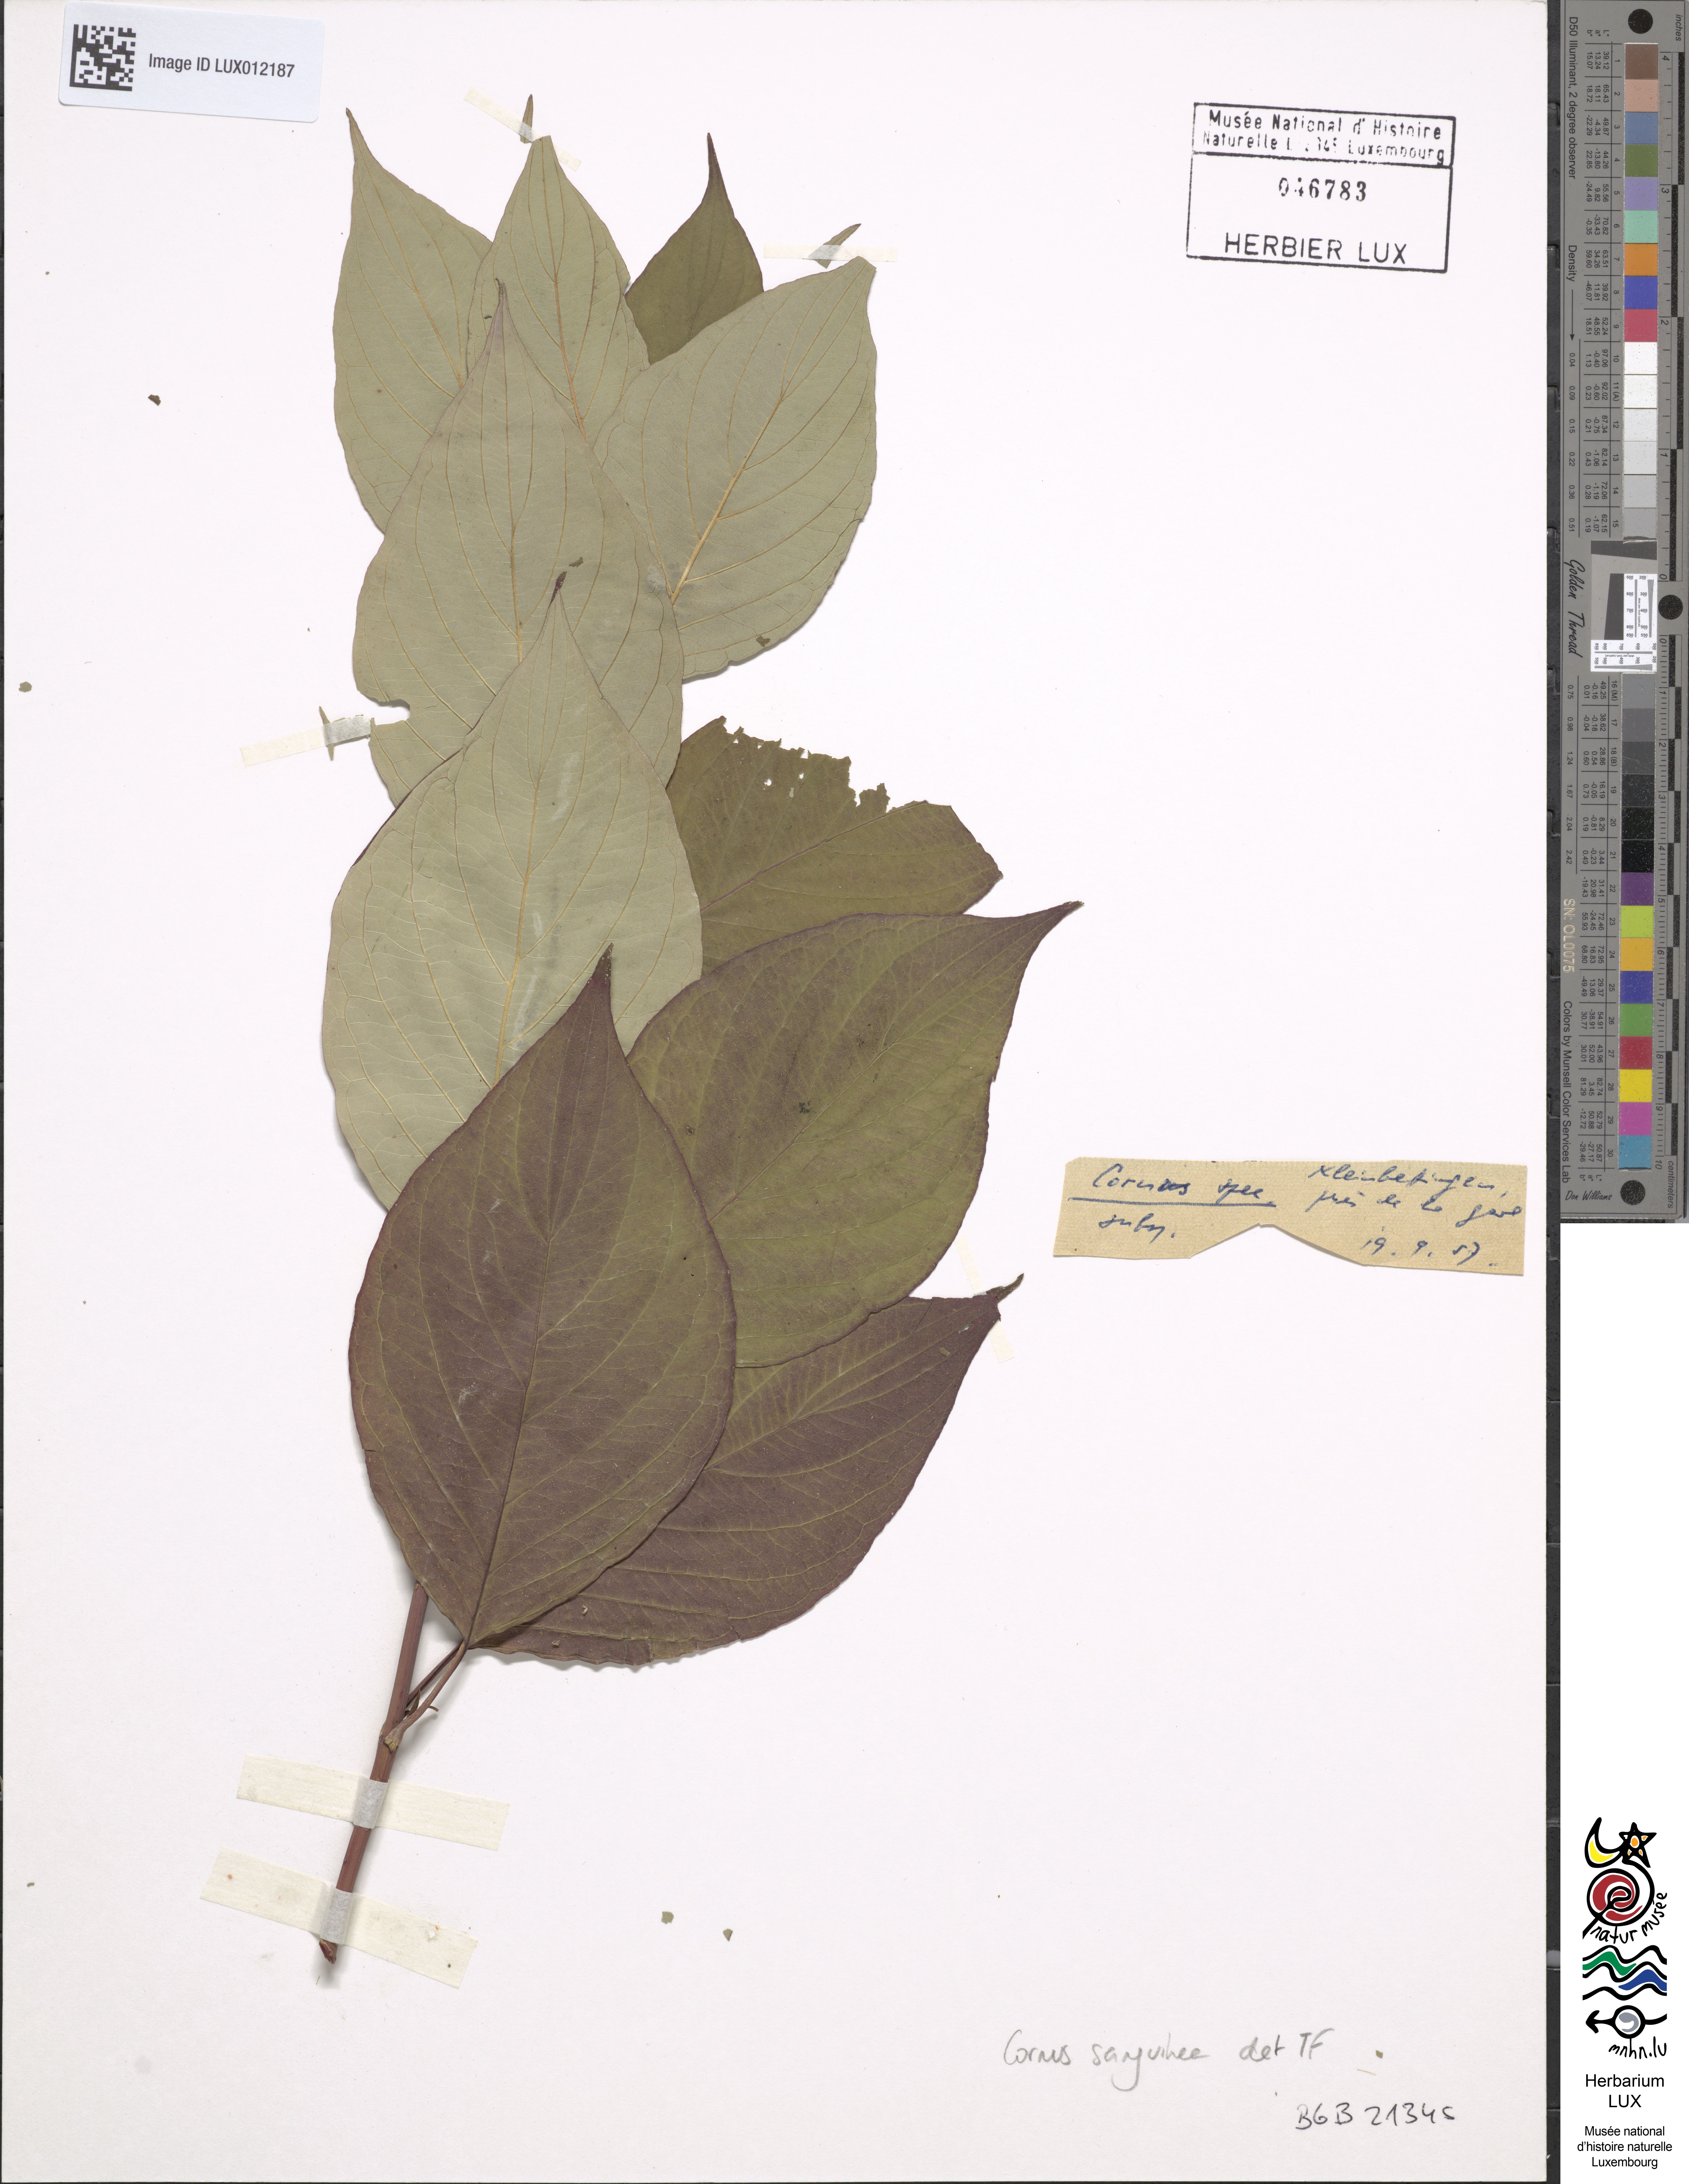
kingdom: Plantae
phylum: Tracheophyta
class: Magnoliopsida
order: Cornales
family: Cornaceae
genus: Cornus
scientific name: Cornus sanguinea
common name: Dogwood
